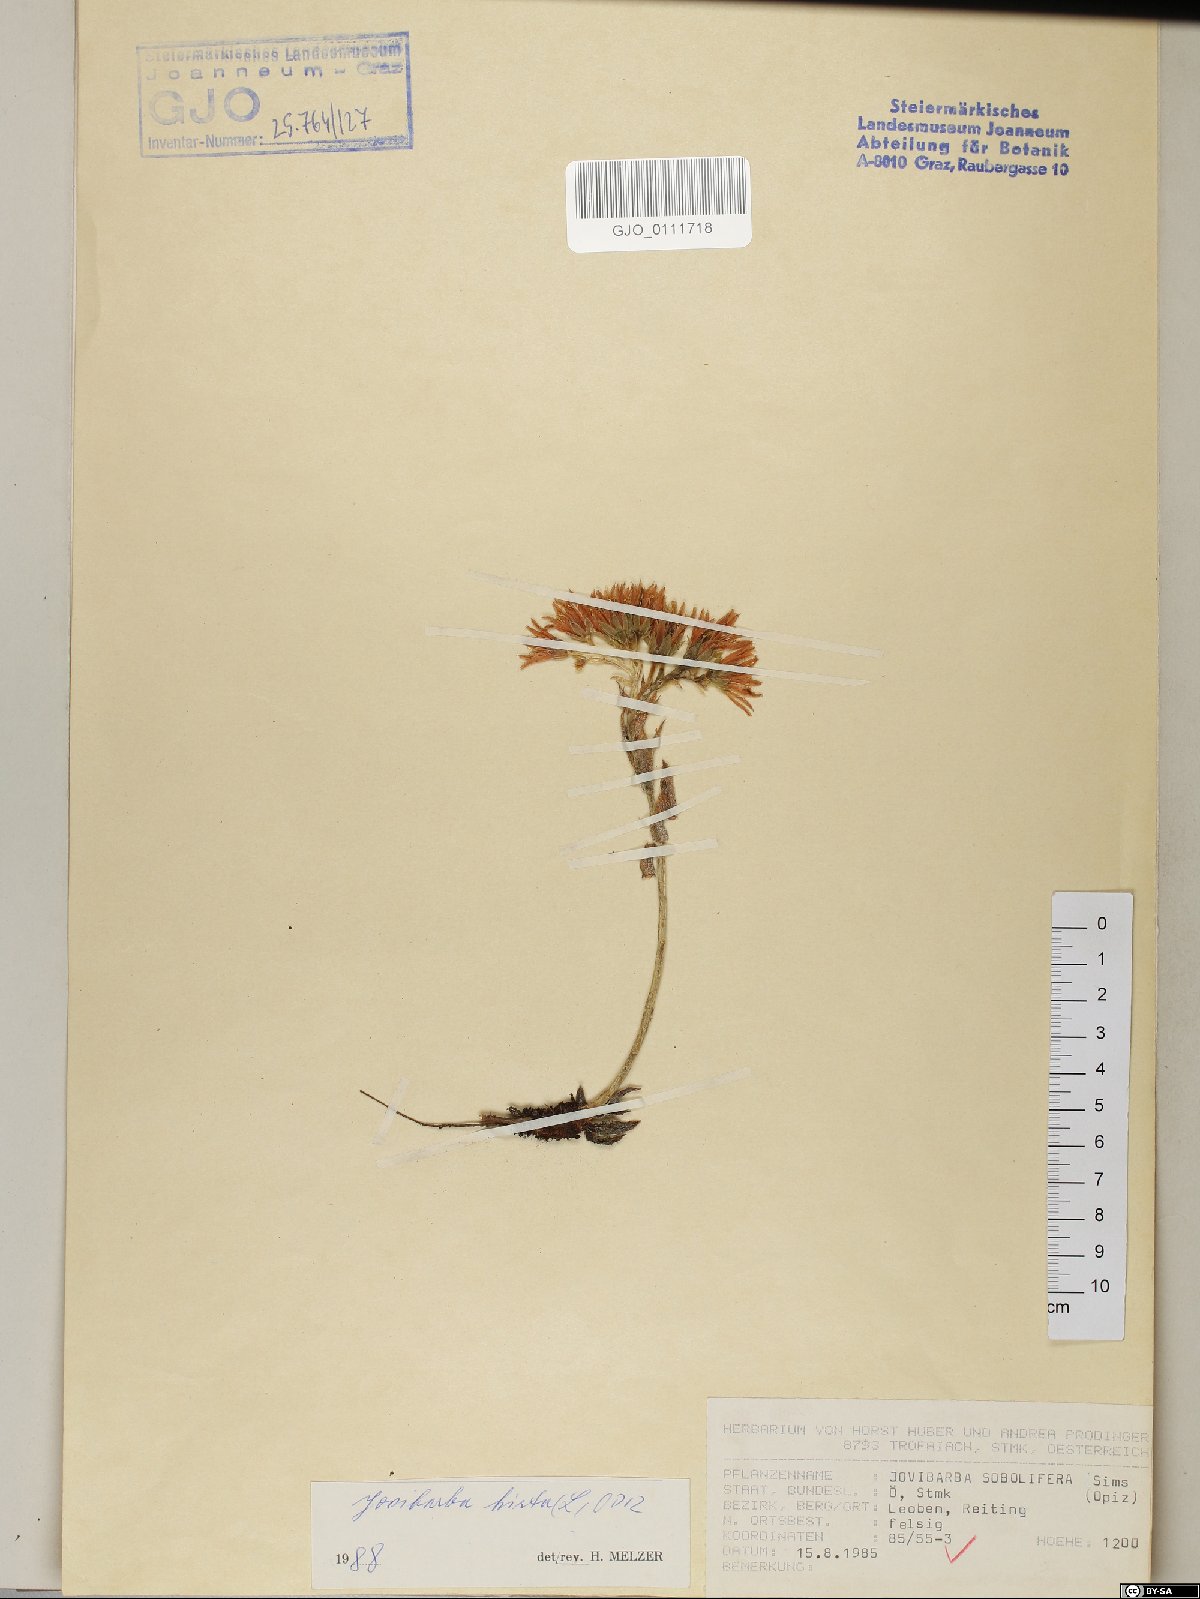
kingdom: Plantae
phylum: Tracheophyta
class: Magnoliopsida
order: Saxifragales
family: Crassulaceae
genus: Sempervivum
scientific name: Sempervivum globiferum
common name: Rolling hen-and-chicks
